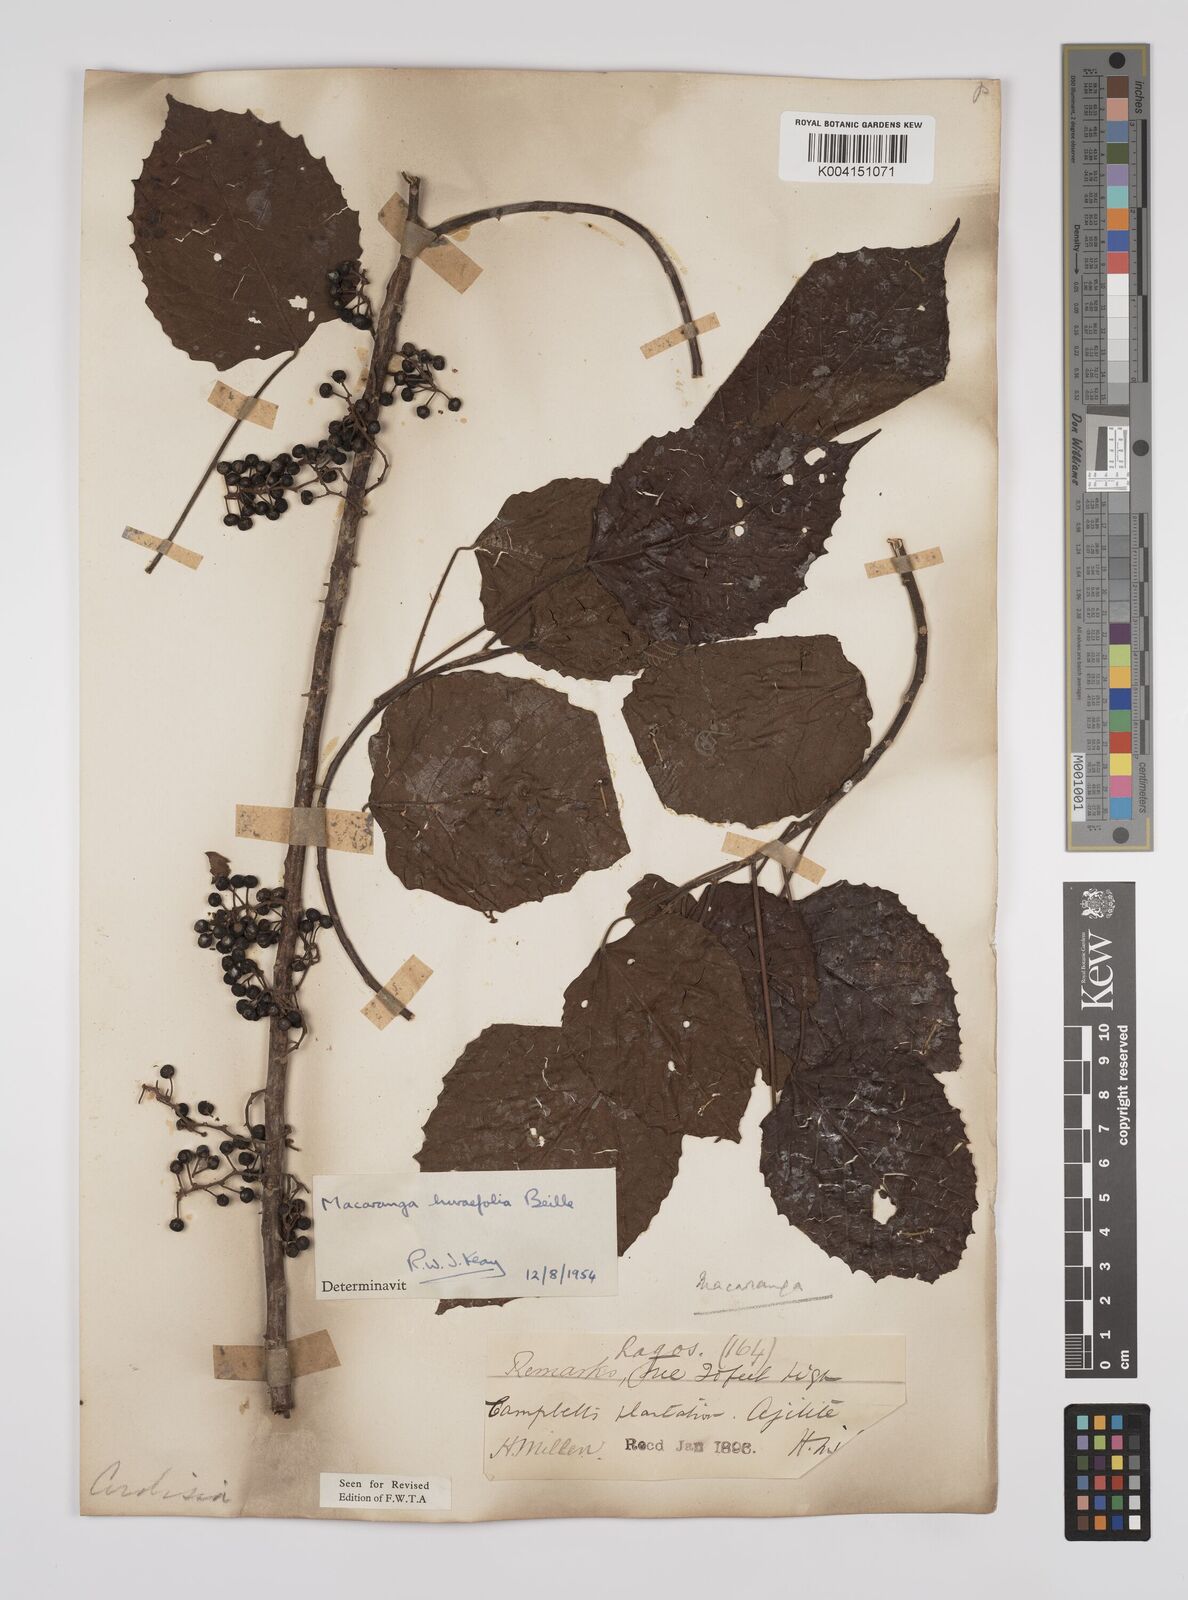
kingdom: Plantae
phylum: Tracheophyta
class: Magnoliopsida
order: Malpighiales
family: Euphorbiaceae
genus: Macaranga
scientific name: Macaranga hurifolia
